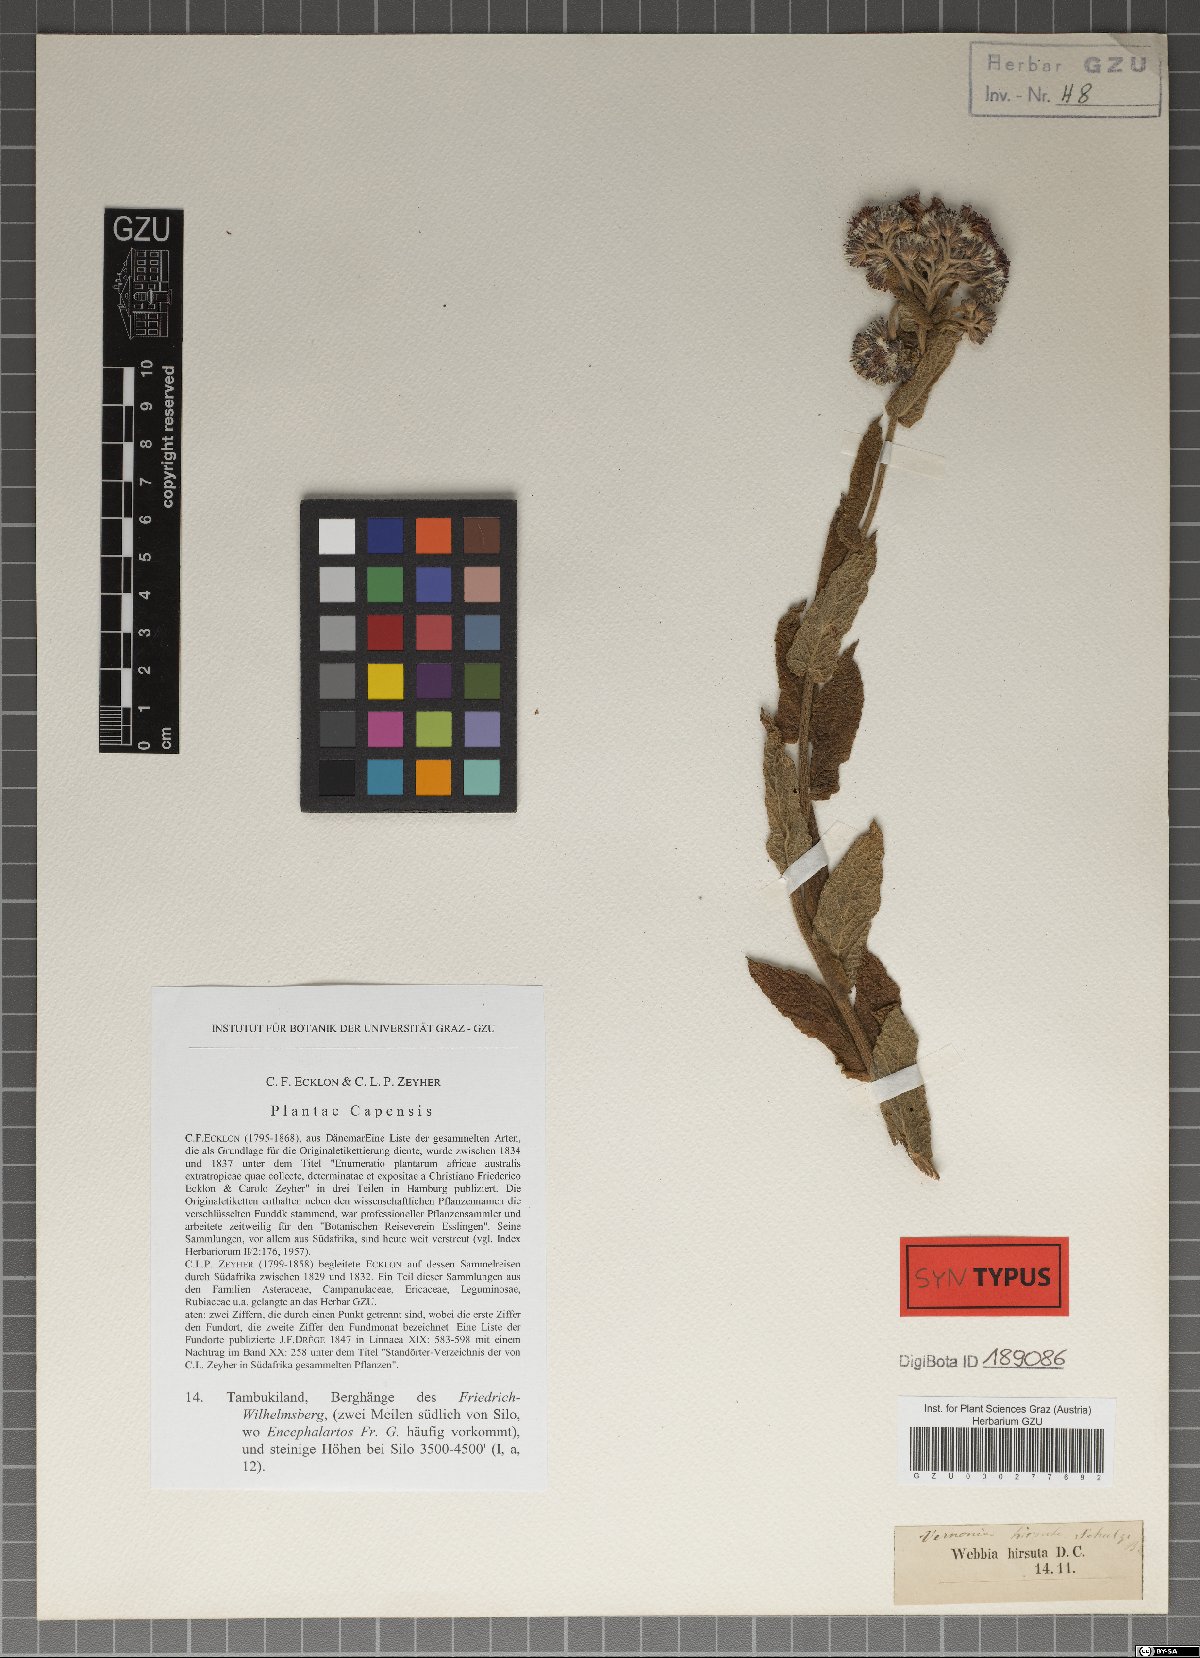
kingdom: Plantae
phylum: Tracheophyta
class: Magnoliopsida
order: Asterales
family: Asteraceae
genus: Hilliardiella
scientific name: Hilliardiella hirsuta
